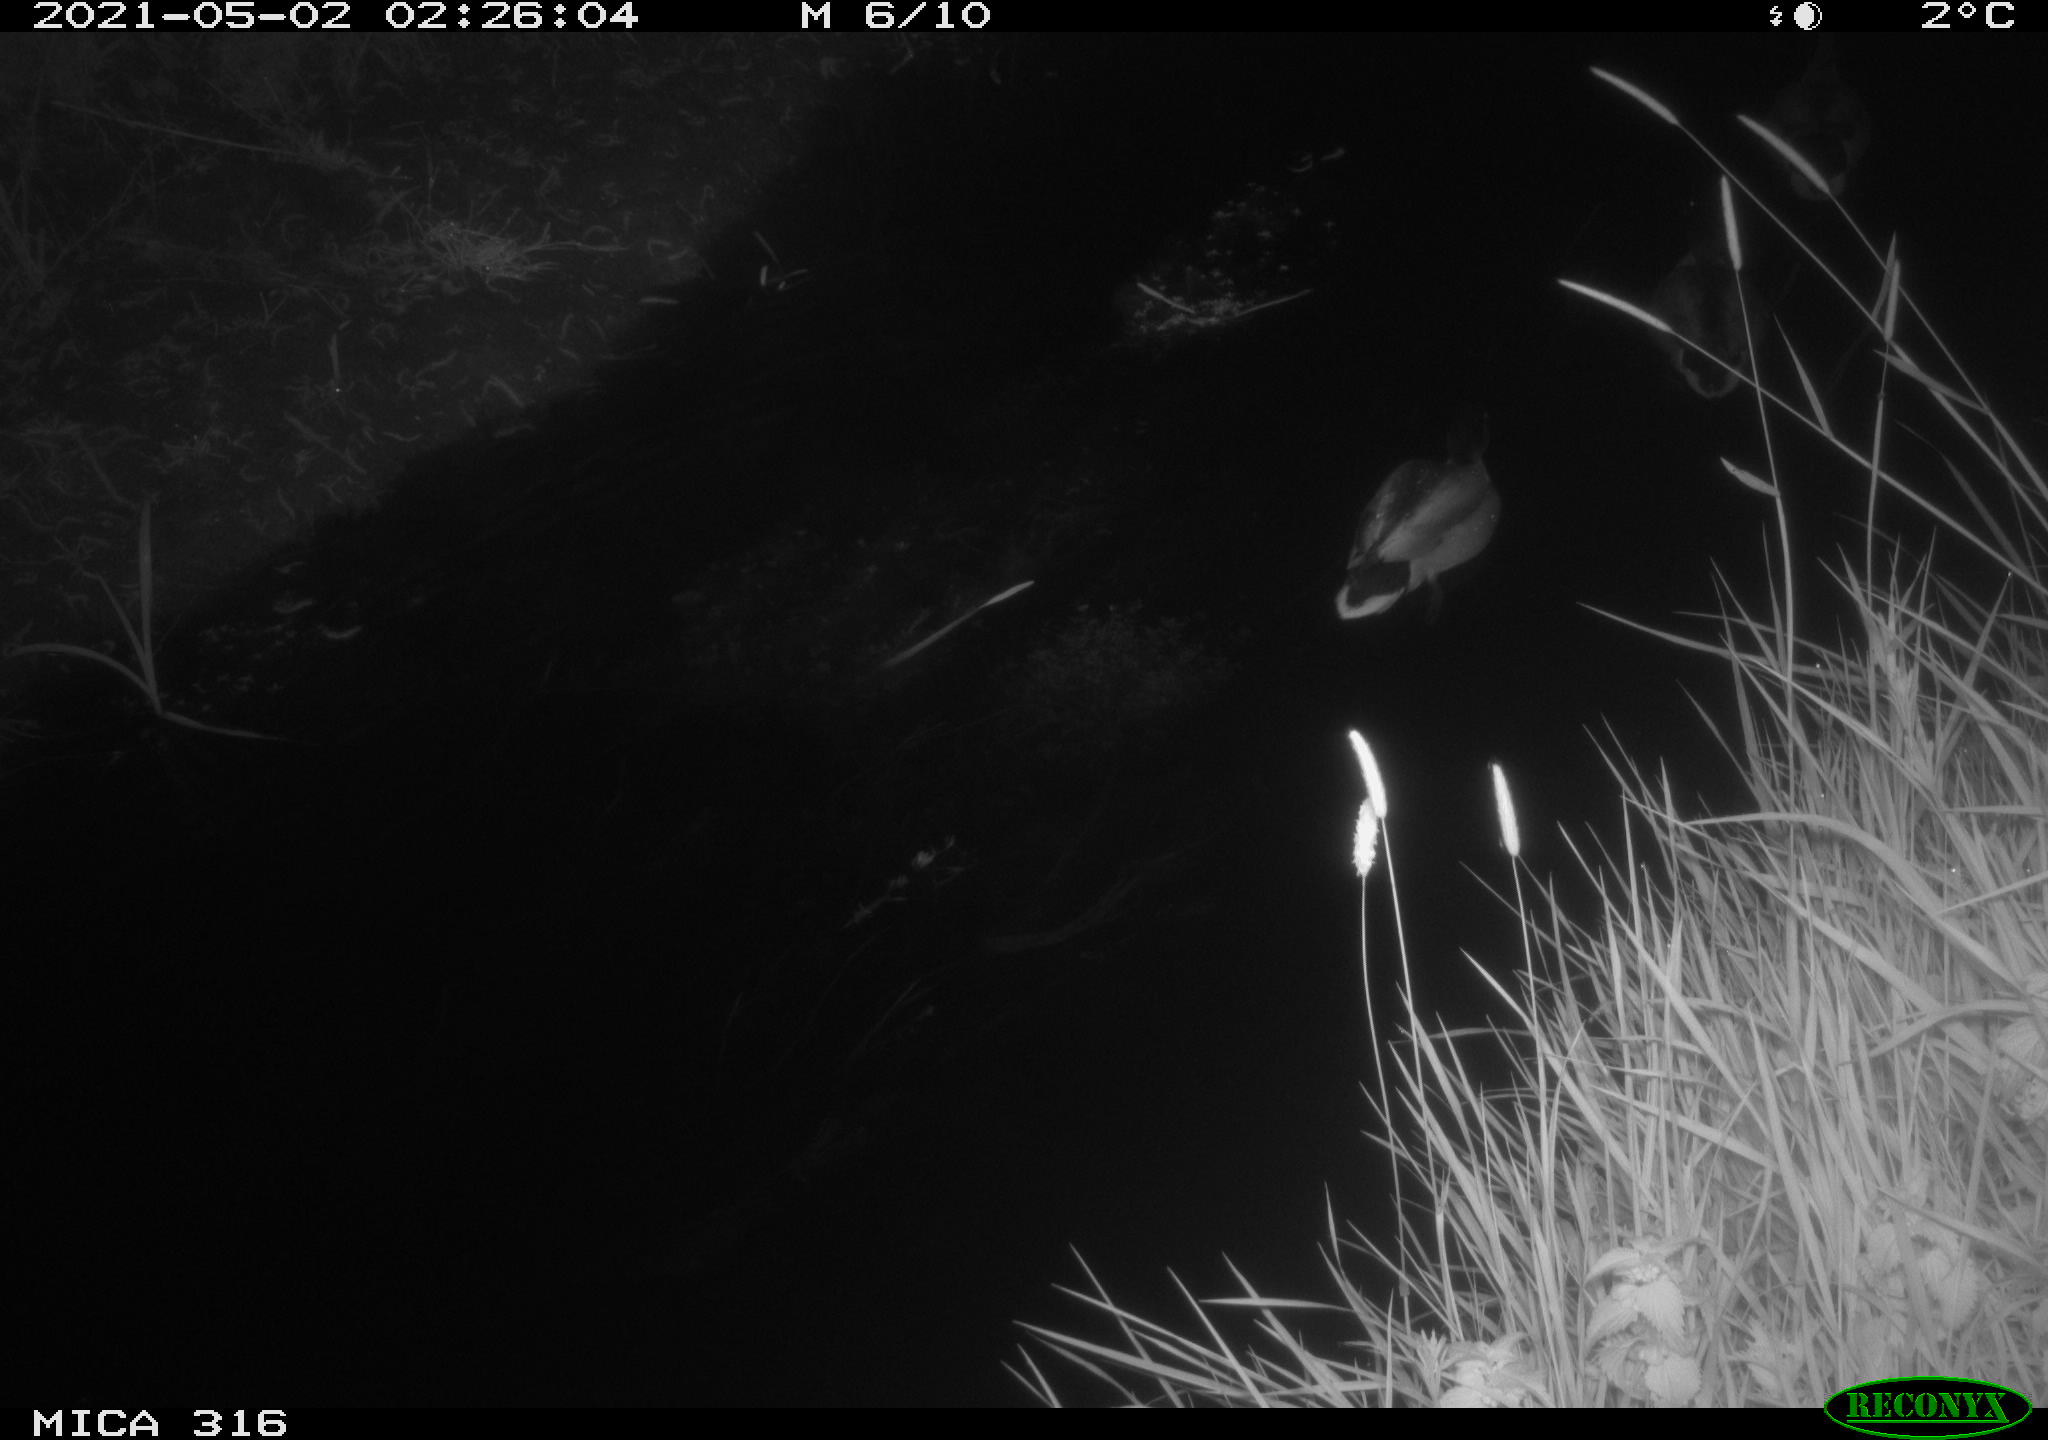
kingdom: Animalia
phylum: Chordata
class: Aves
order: Anseriformes
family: Anatidae
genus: Anas
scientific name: Anas platyrhynchos
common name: Mallard
